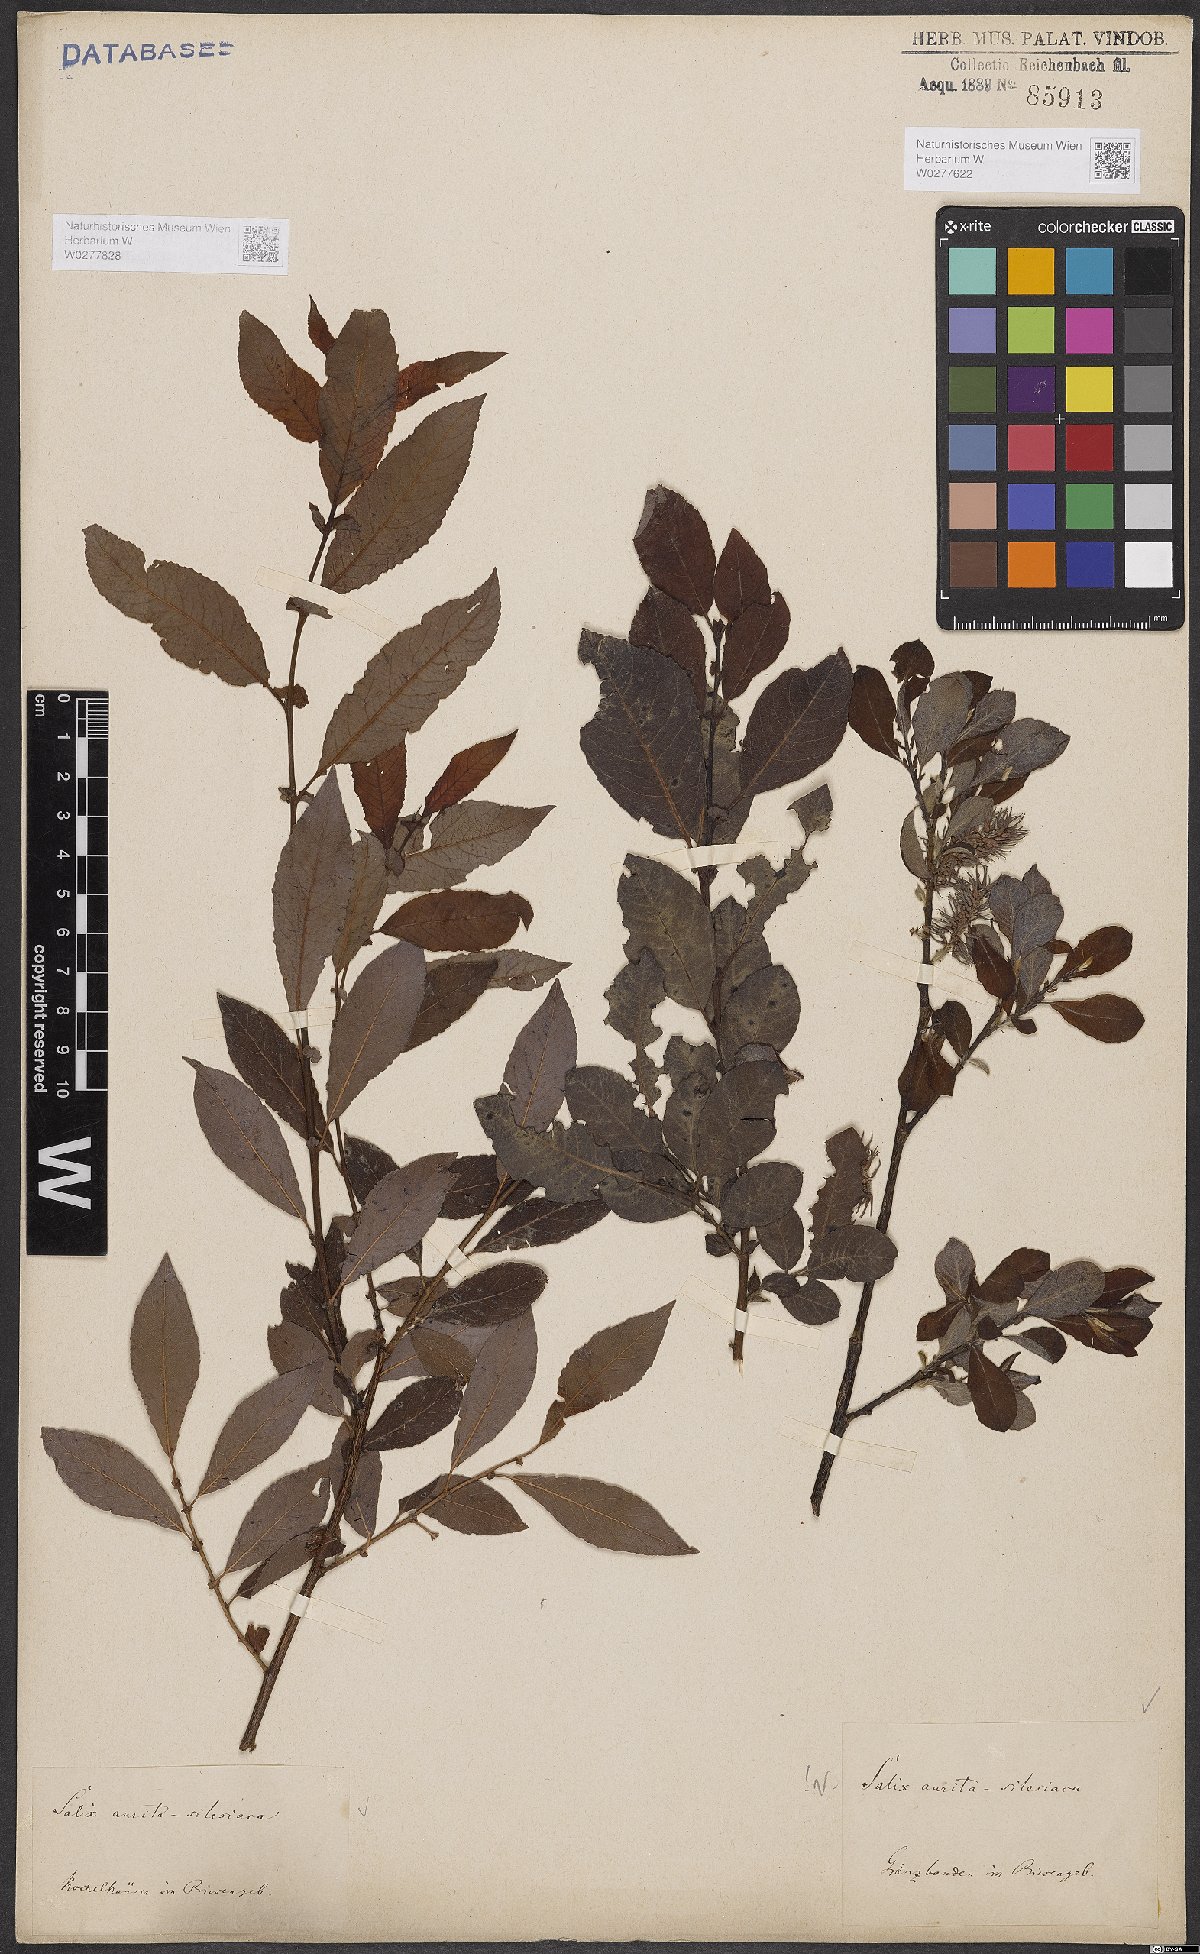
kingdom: Plantae
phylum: Tracheophyta
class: Magnoliopsida
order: Malpighiales
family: Salicaceae
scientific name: Salicaceae
